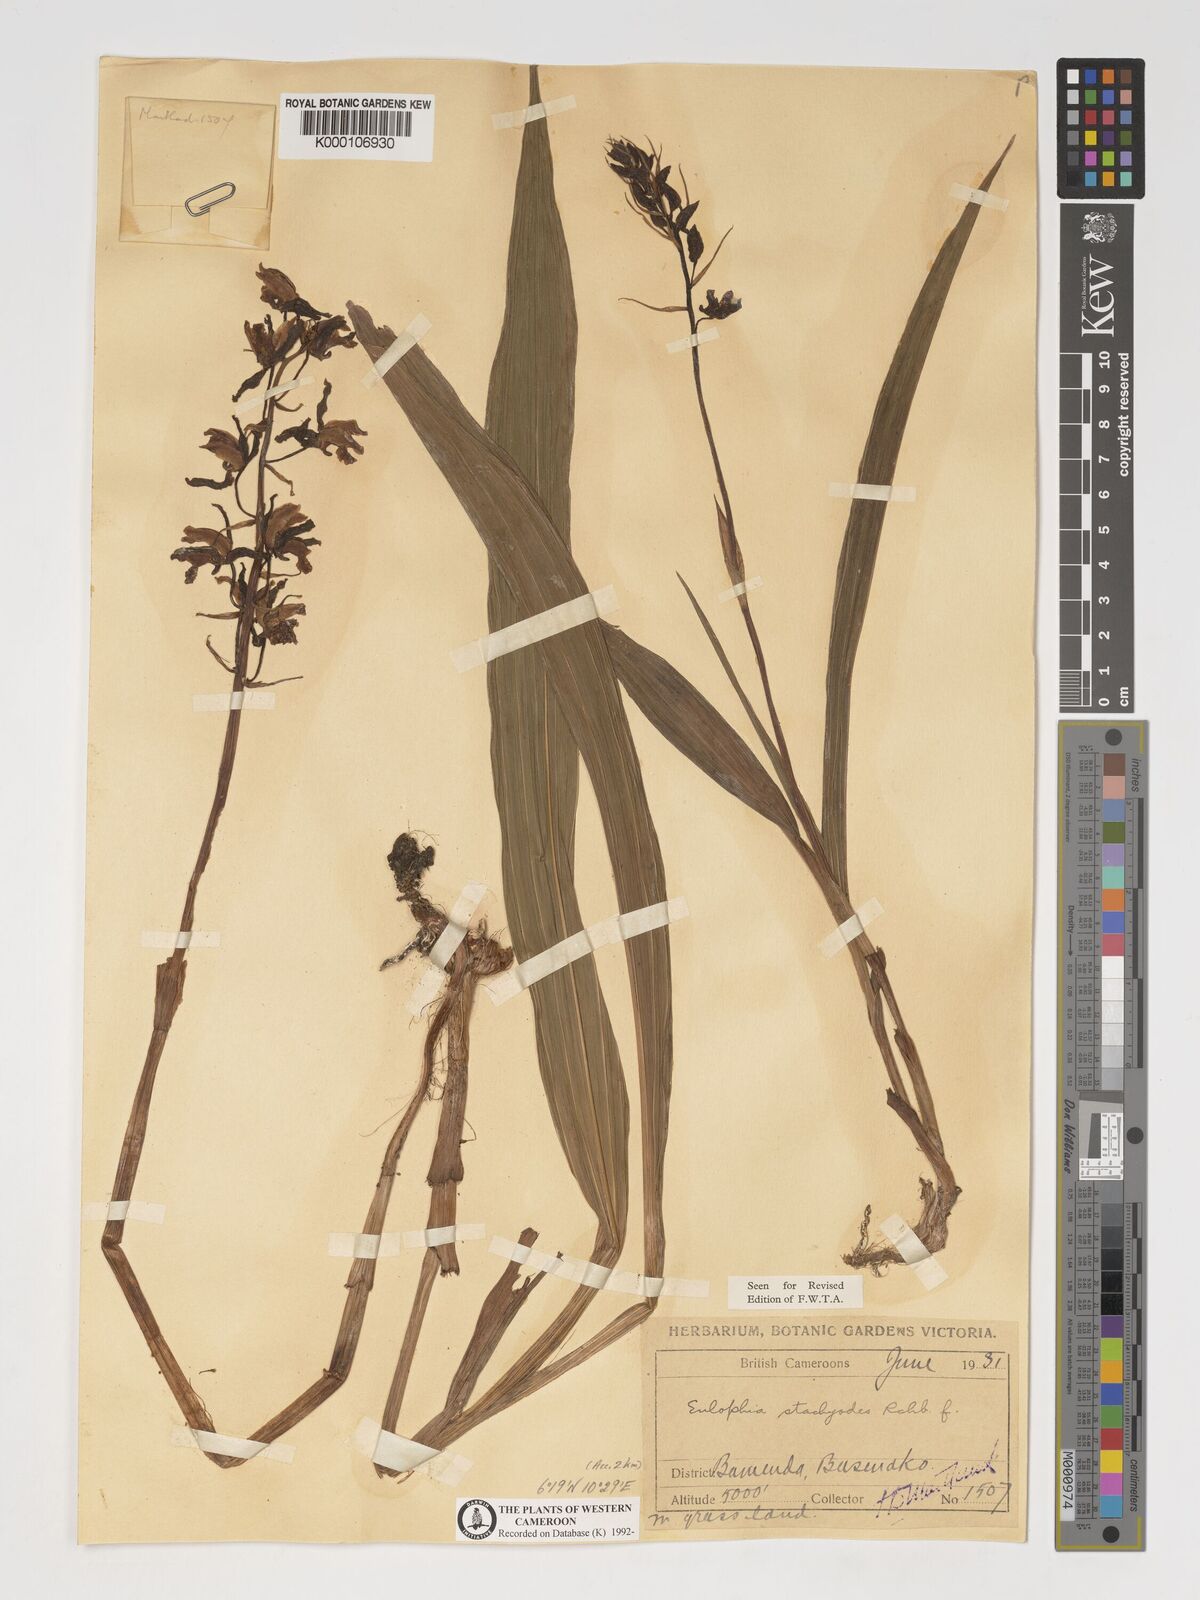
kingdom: Plantae
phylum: Tracheophyta
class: Liliopsida
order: Asparagales
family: Orchidaceae
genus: Eulophia
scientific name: Eulophia stachyodes
